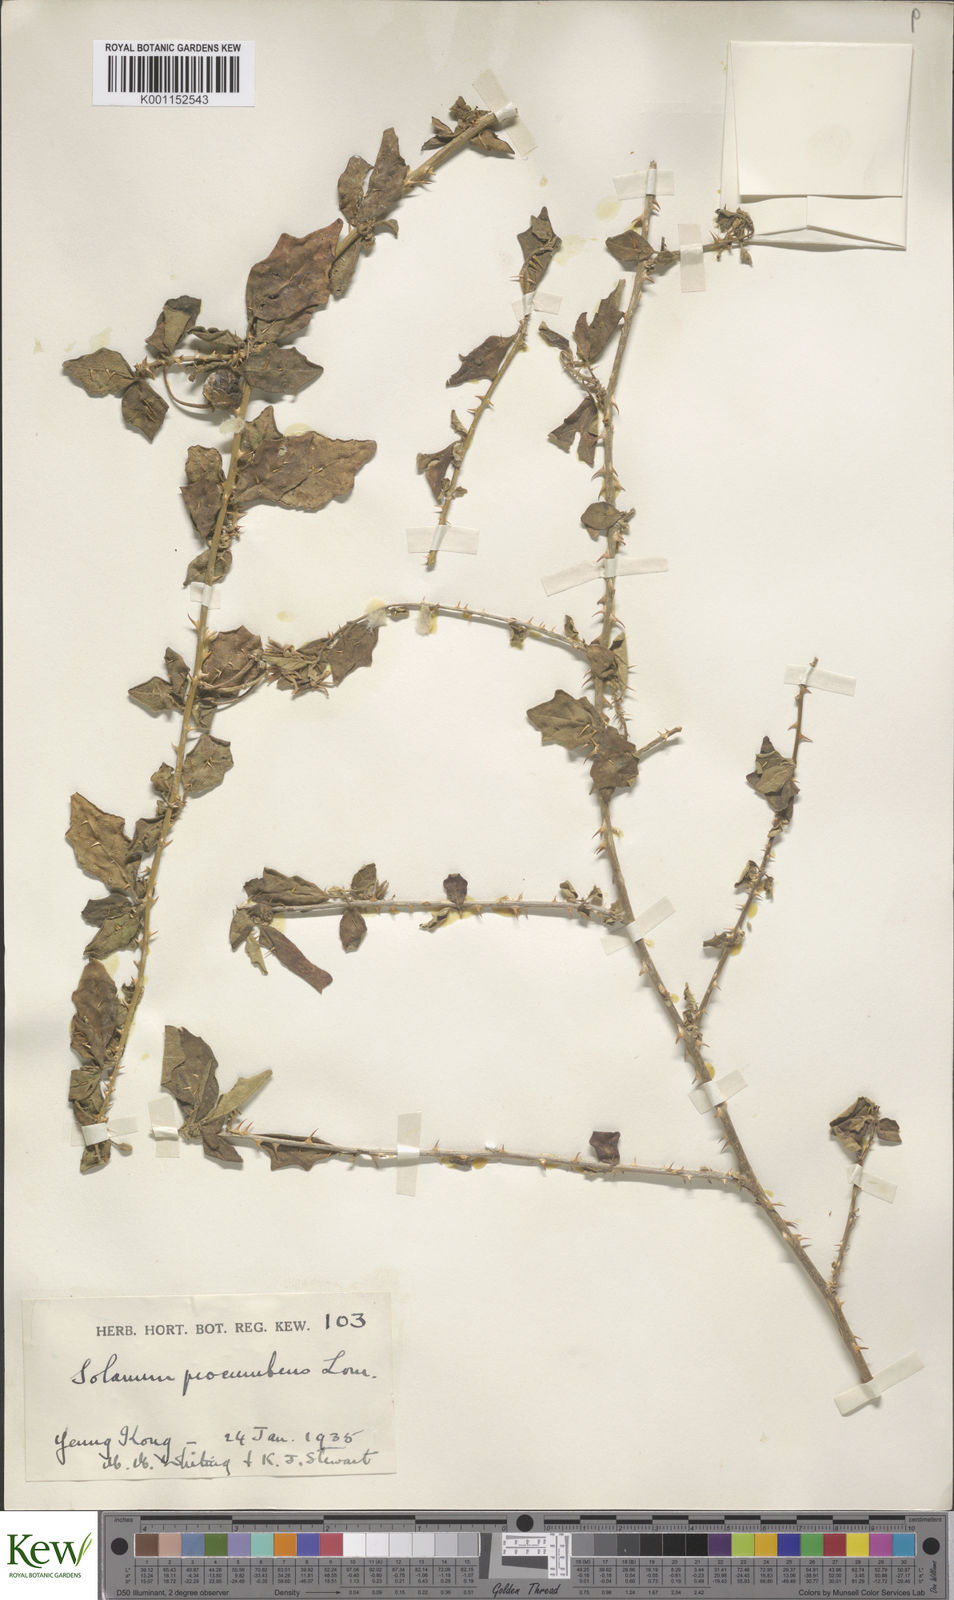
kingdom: Plantae
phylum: Tracheophyta
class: Magnoliopsida
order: Solanales
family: Solanaceae
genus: Solanum
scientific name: Solanum procumbens
